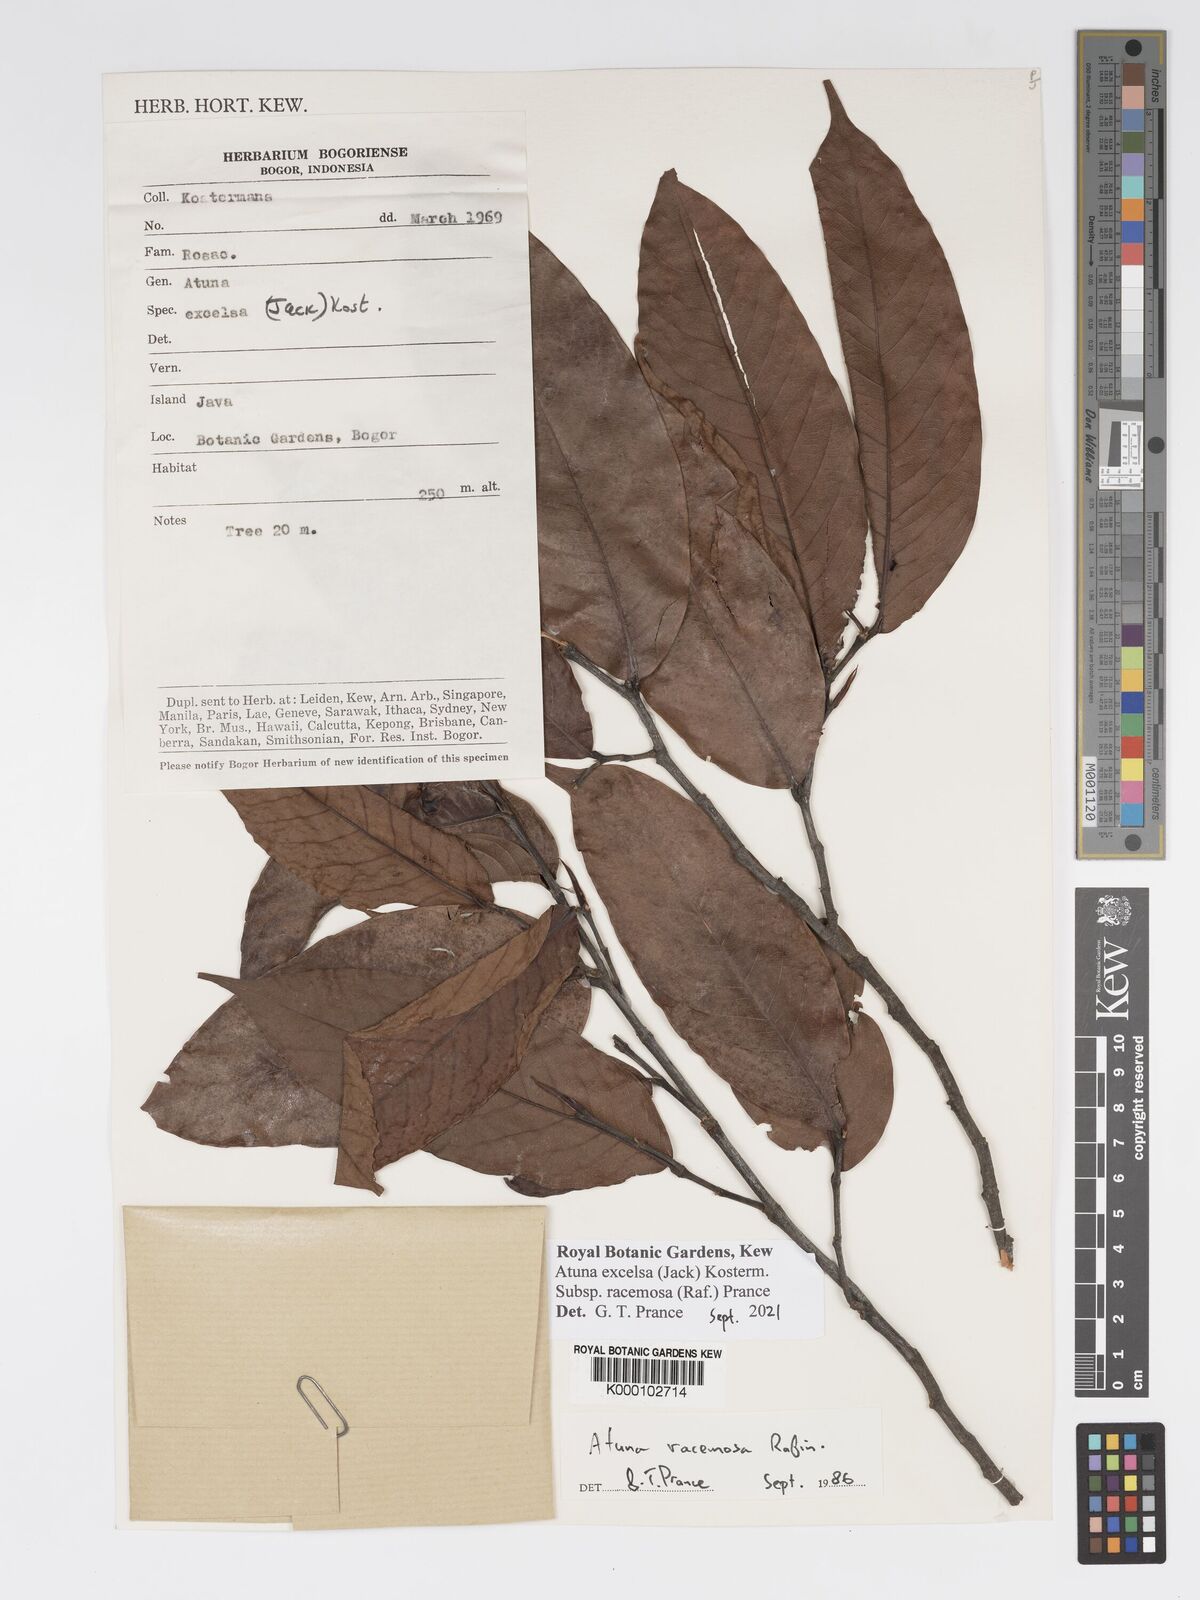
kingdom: Plantae
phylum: Tracheophyta
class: Magnoliopsida
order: Malpighiales
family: Chrysobalanaceae
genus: Atuna
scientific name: Atuna excelsa
